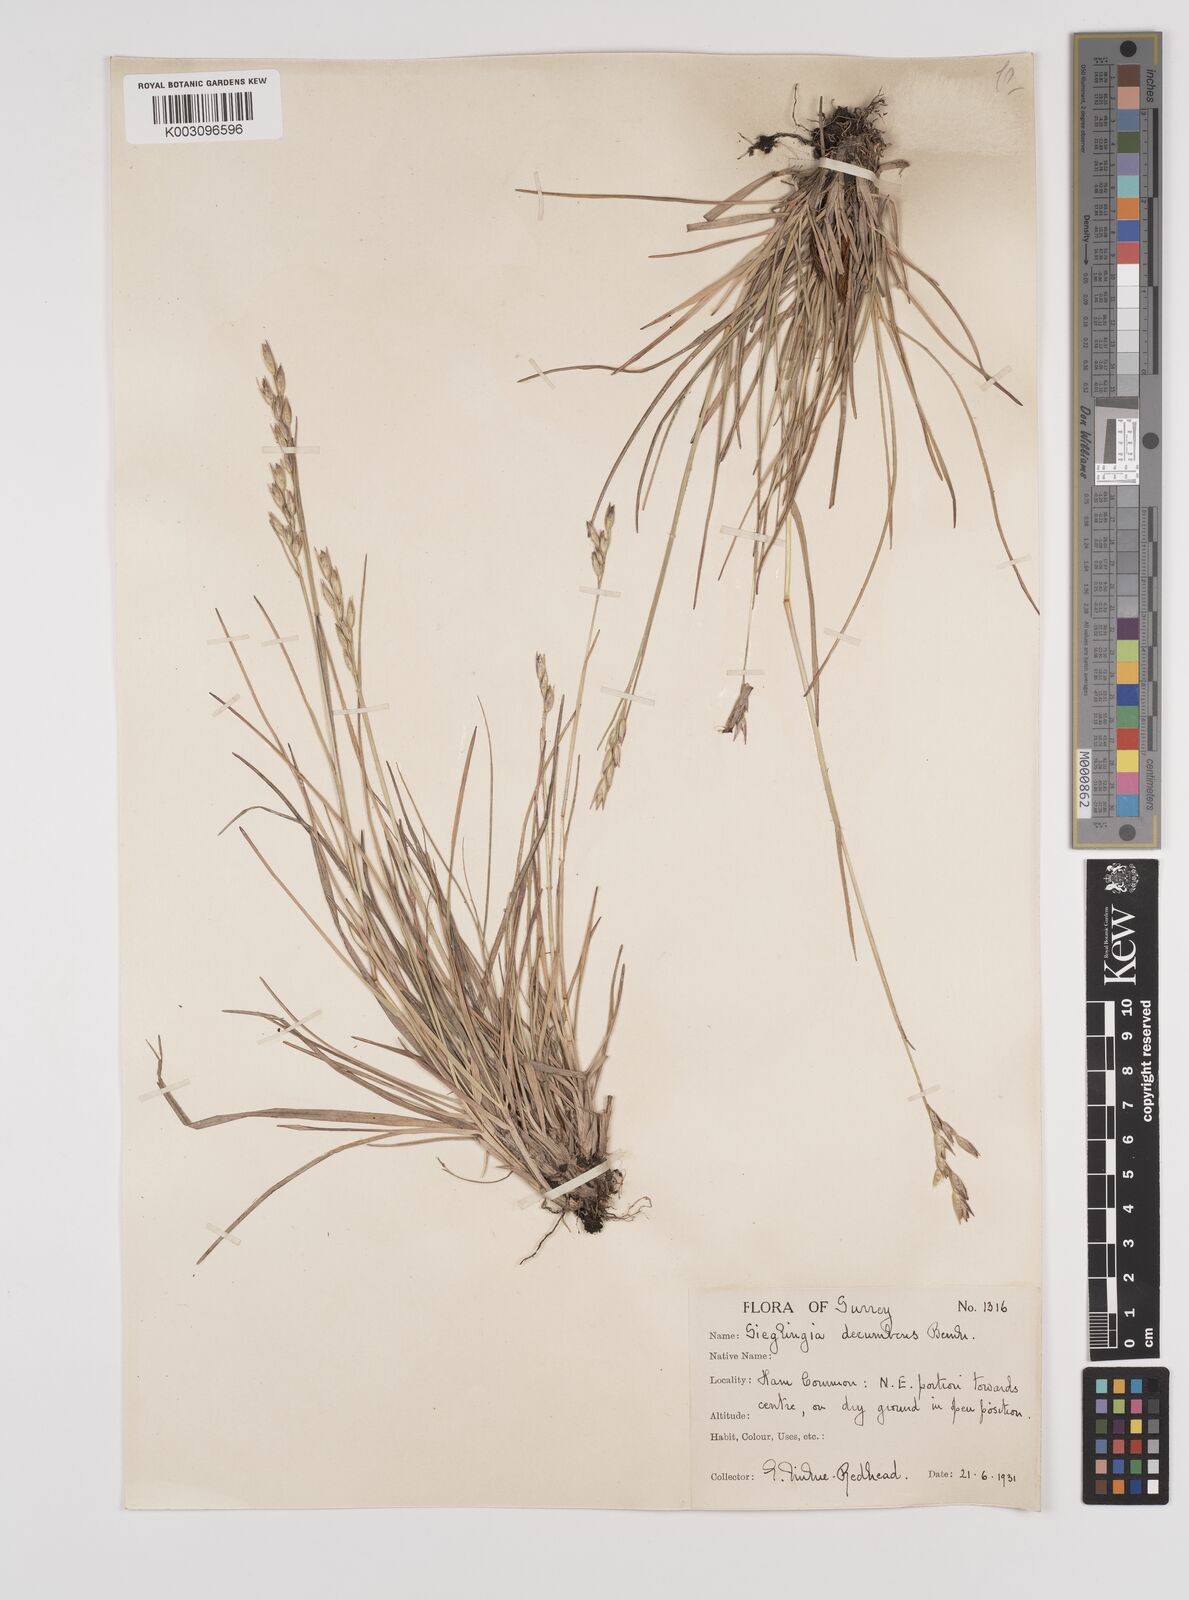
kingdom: Plantae
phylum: Tracheophyta
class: Liliopsida
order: Poales
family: Poaceae
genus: Danthonia
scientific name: Danthonia decumbens
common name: Common heathgrass
